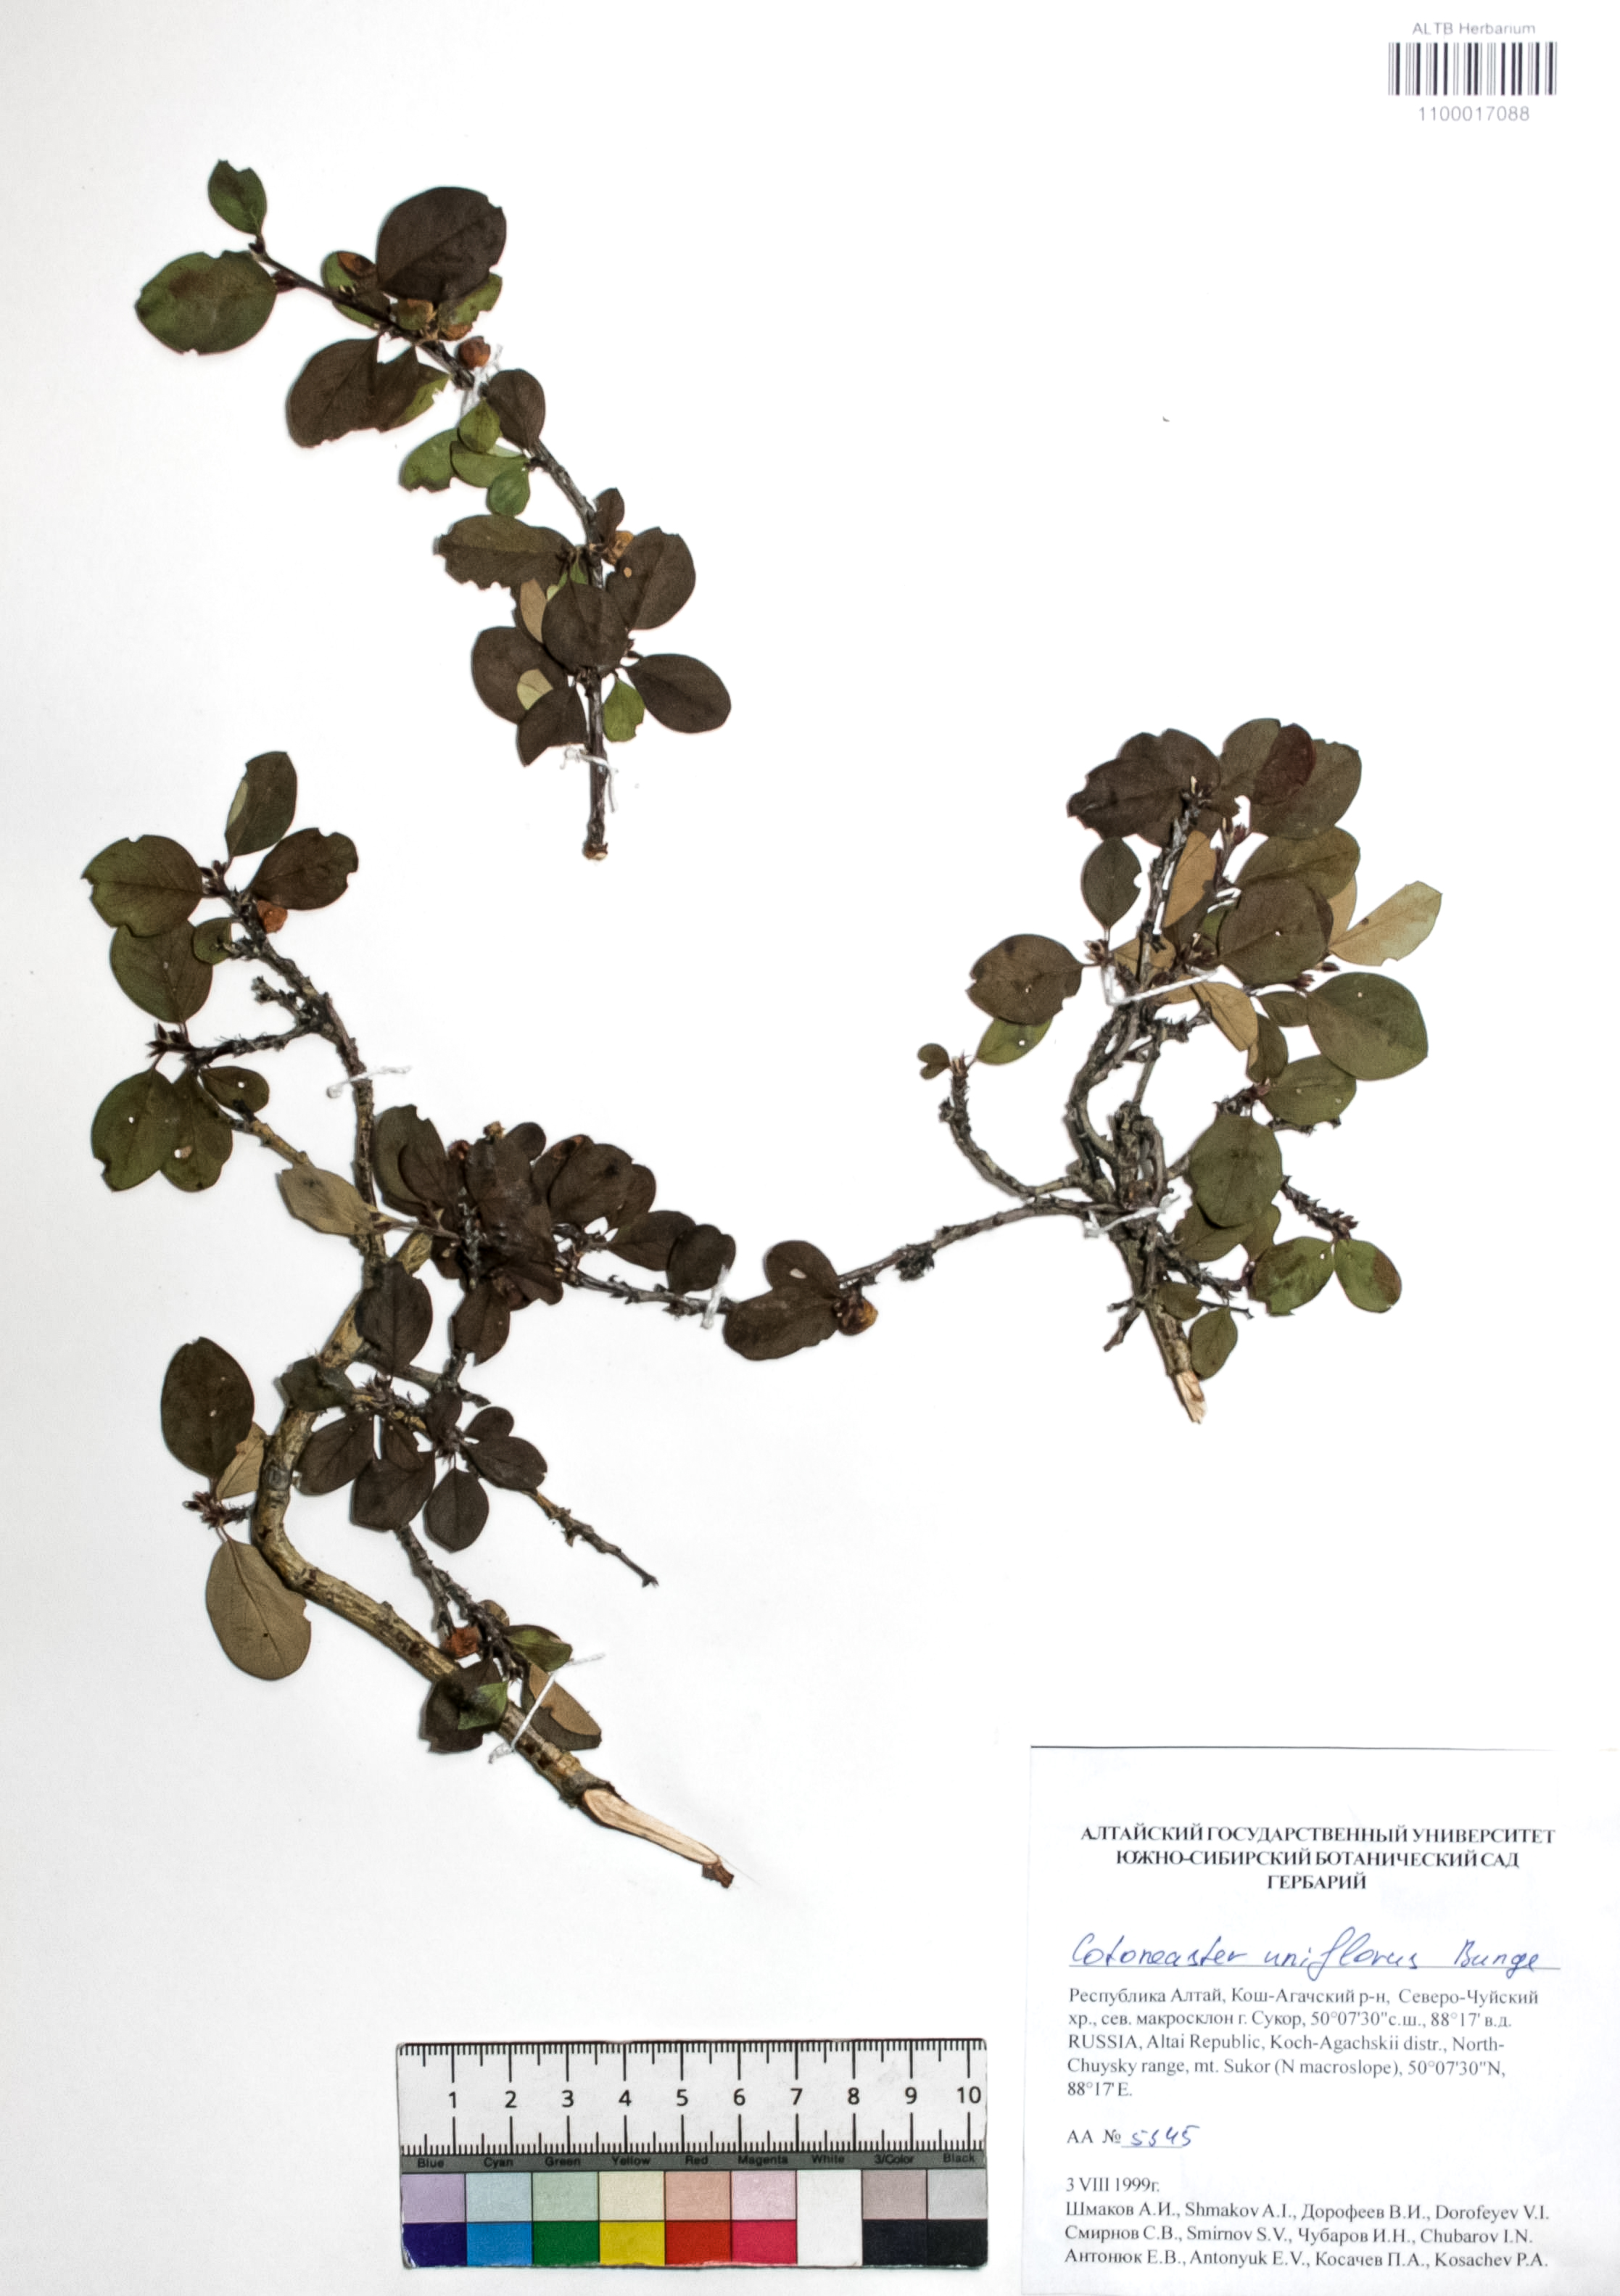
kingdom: Plantae
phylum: Tracheophyta
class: Magnoliopsida
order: Rosales
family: Rosaceae
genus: Cotoneaster
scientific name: Cotoneaster uniflorus
